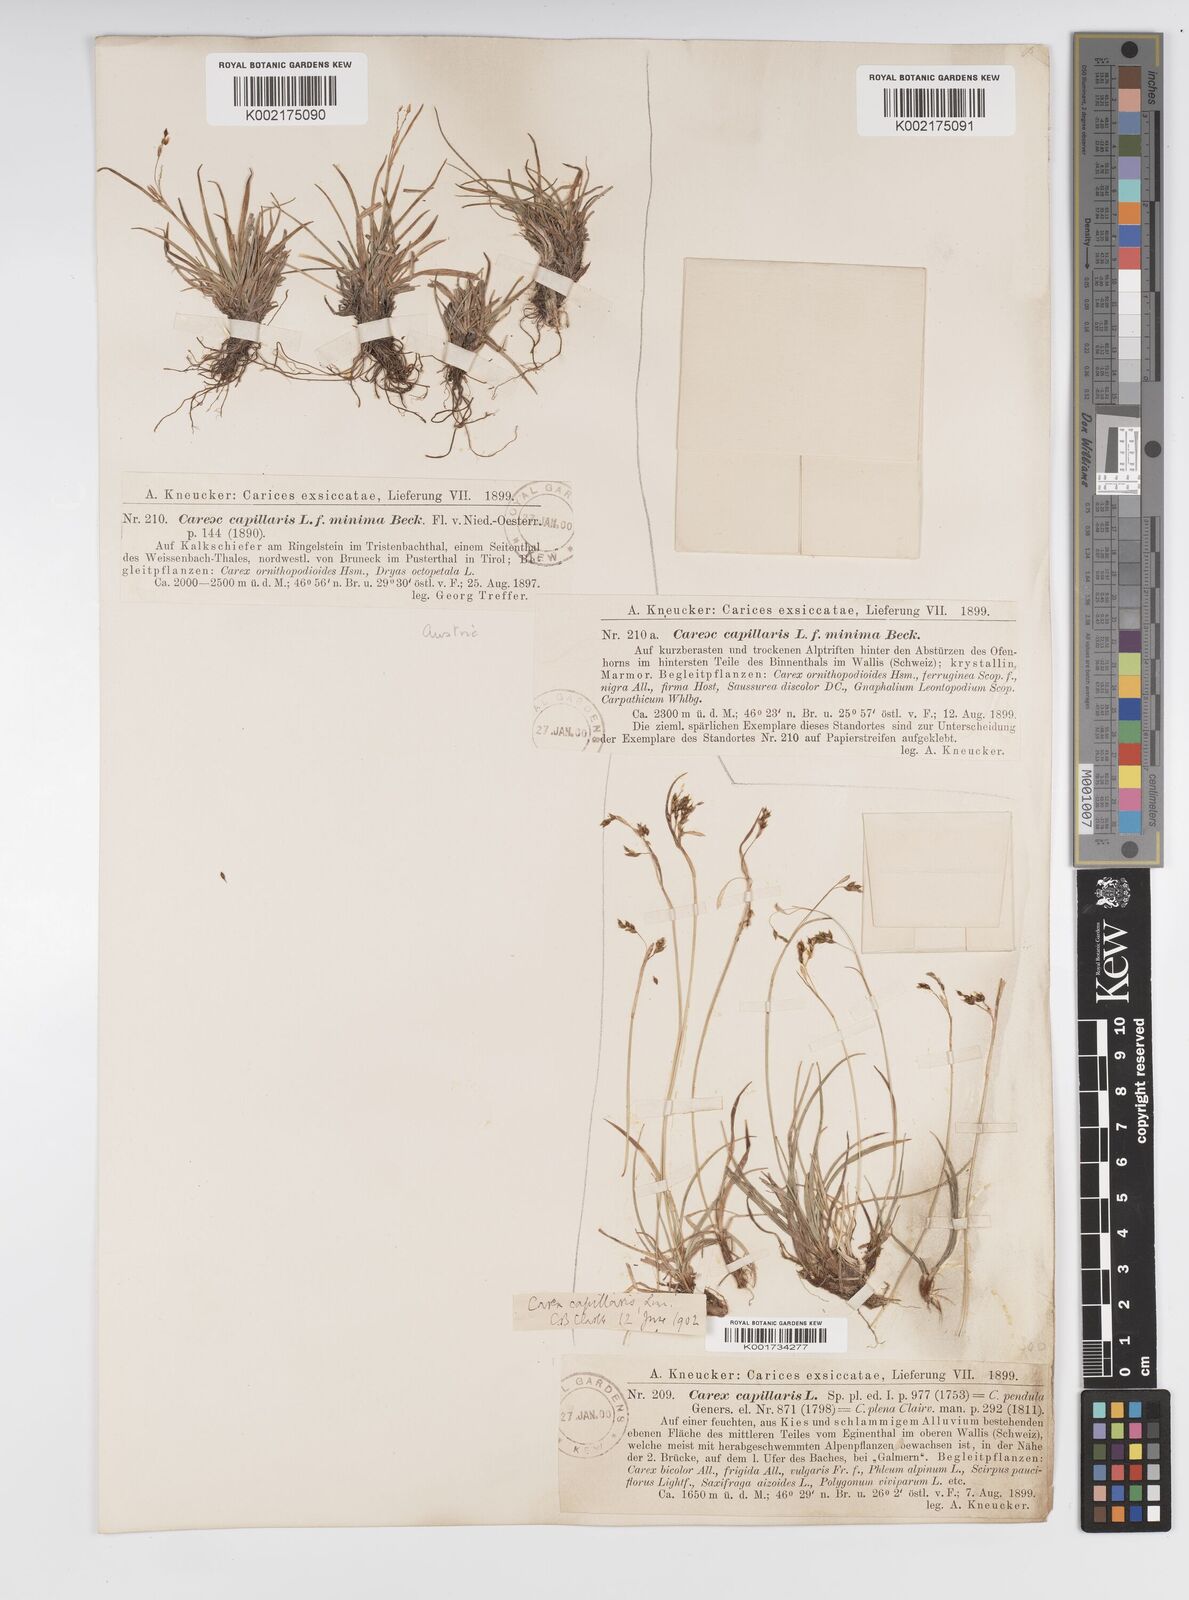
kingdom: Plantae
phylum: Tracheophyta
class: Liliopsida
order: Poales
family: Cyperaceae
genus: Carex
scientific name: Carex capillaris
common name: Hair sedge
